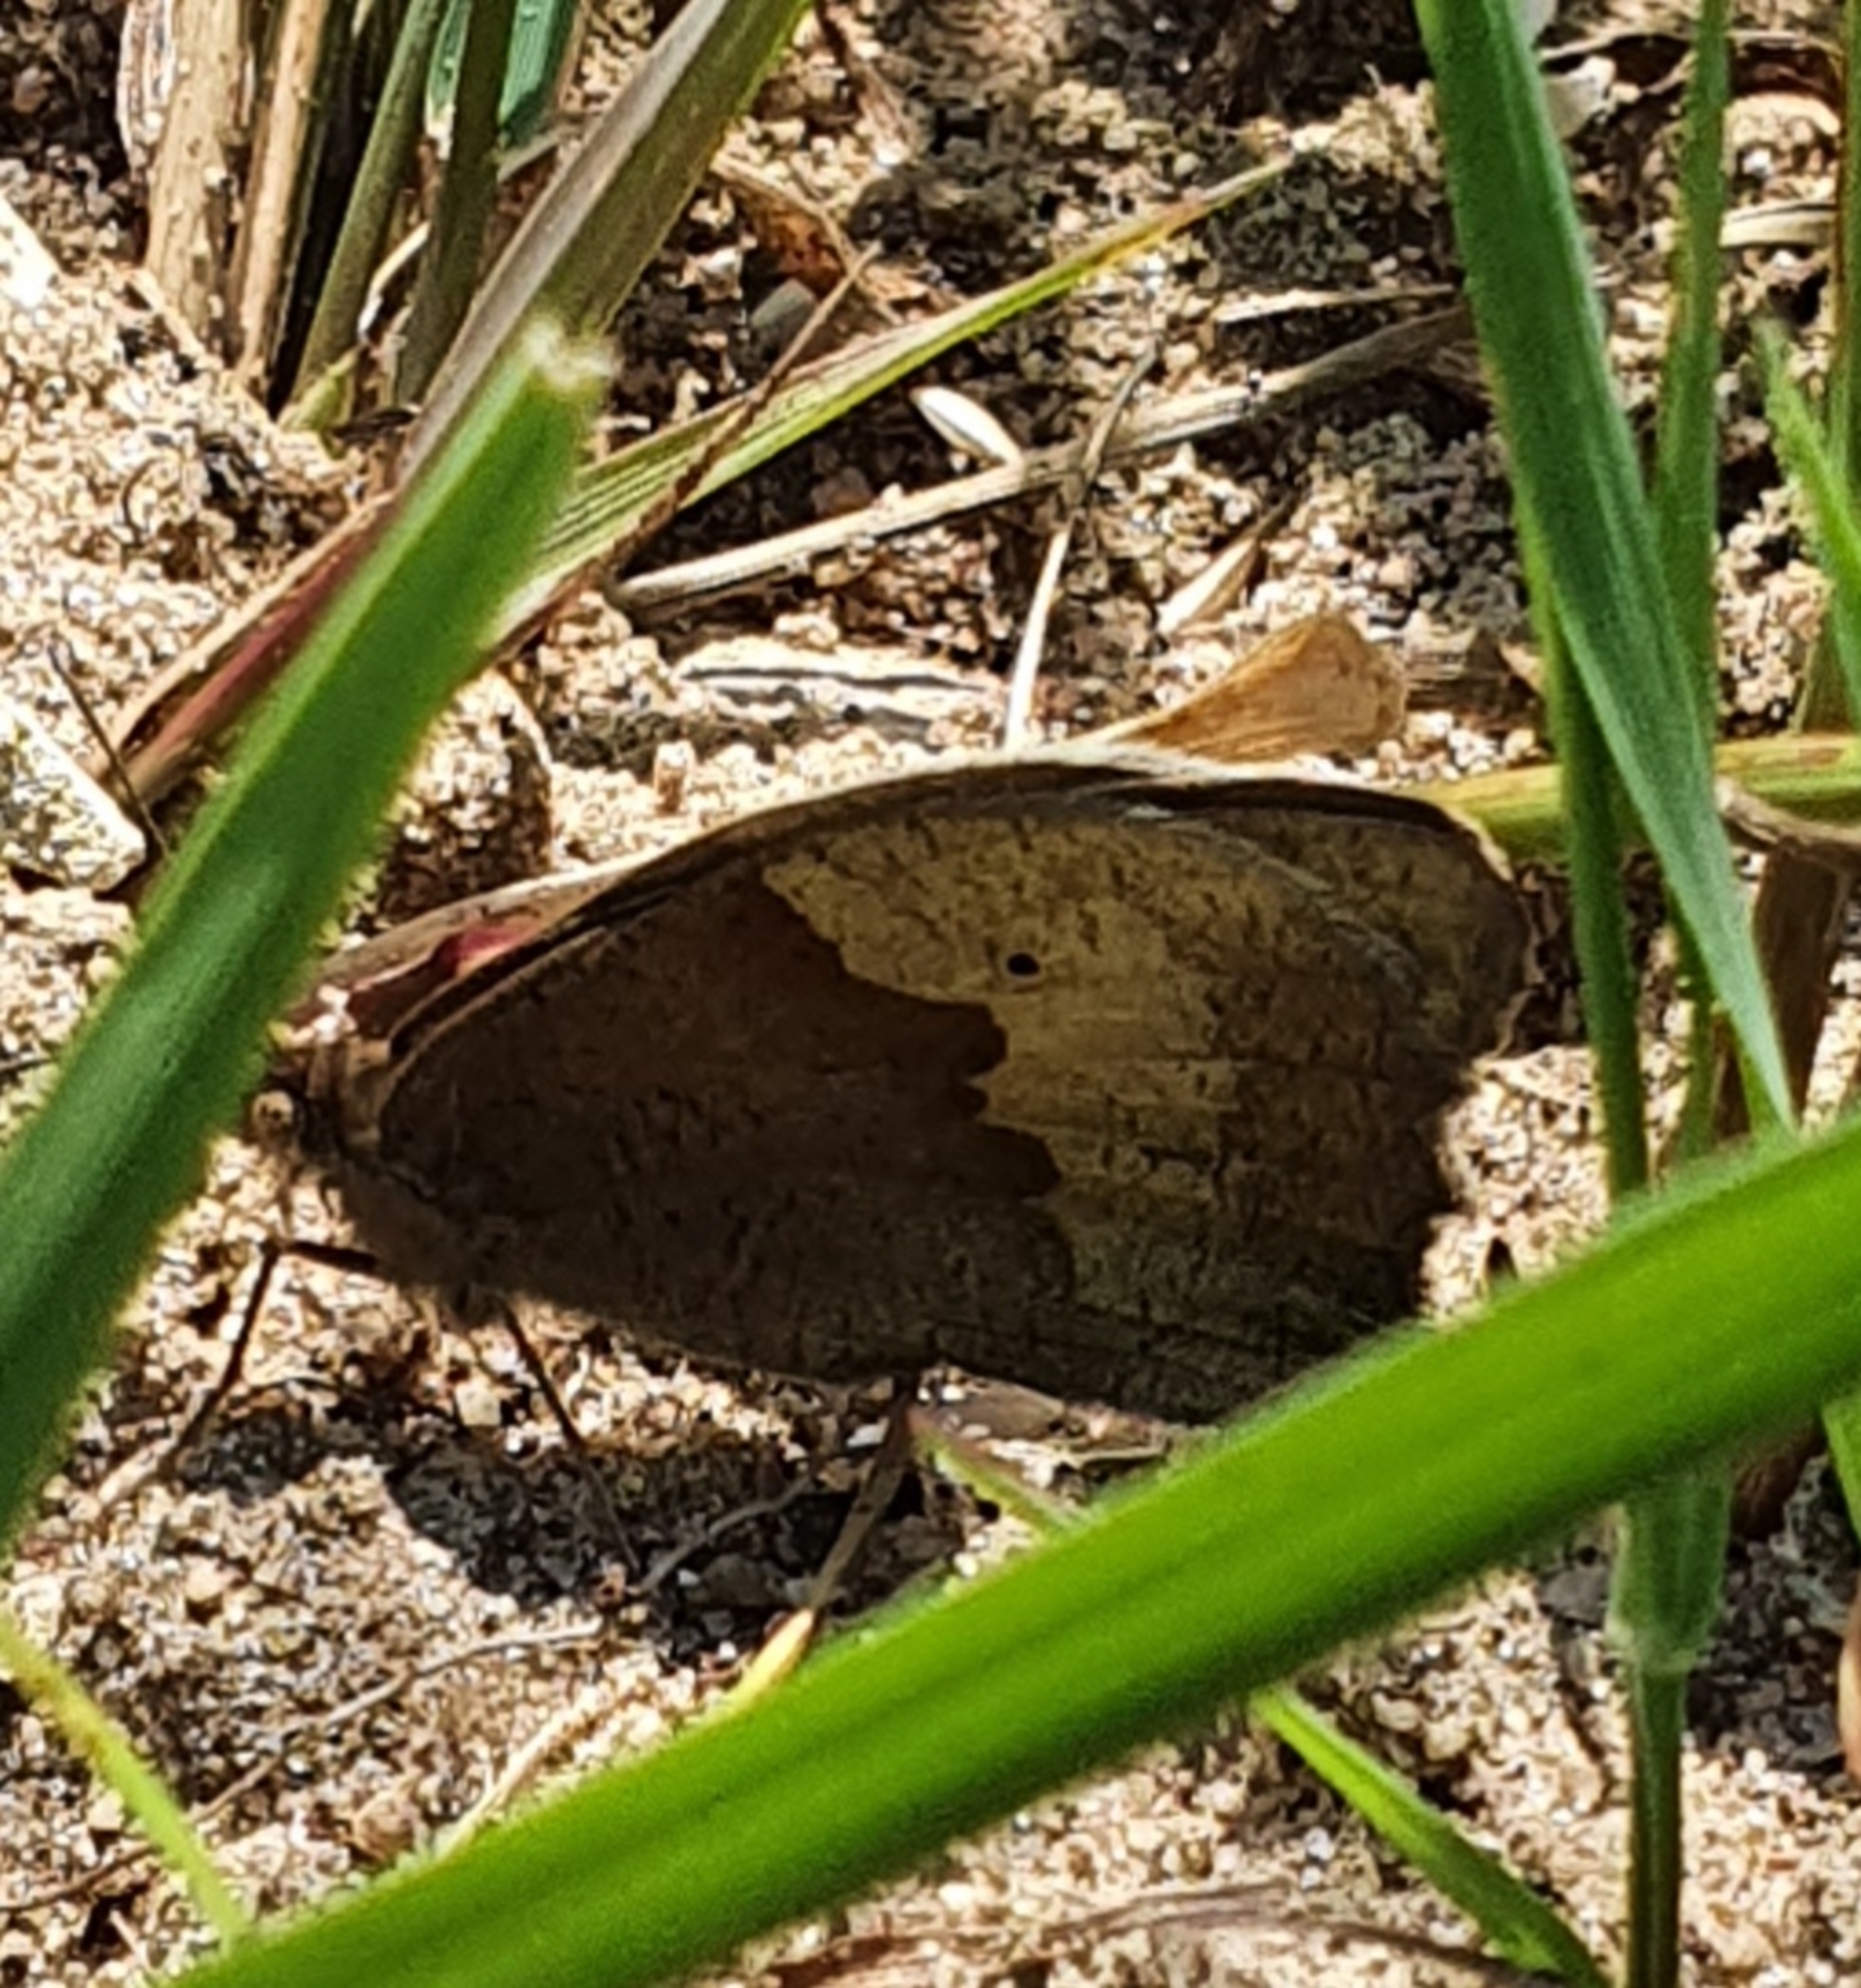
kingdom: Animalia
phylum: Arthropoda
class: Insecta
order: Lepidoptera
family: Nymphalidae
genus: Maniola
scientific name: Maniola jurtina
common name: Græsrandøje
